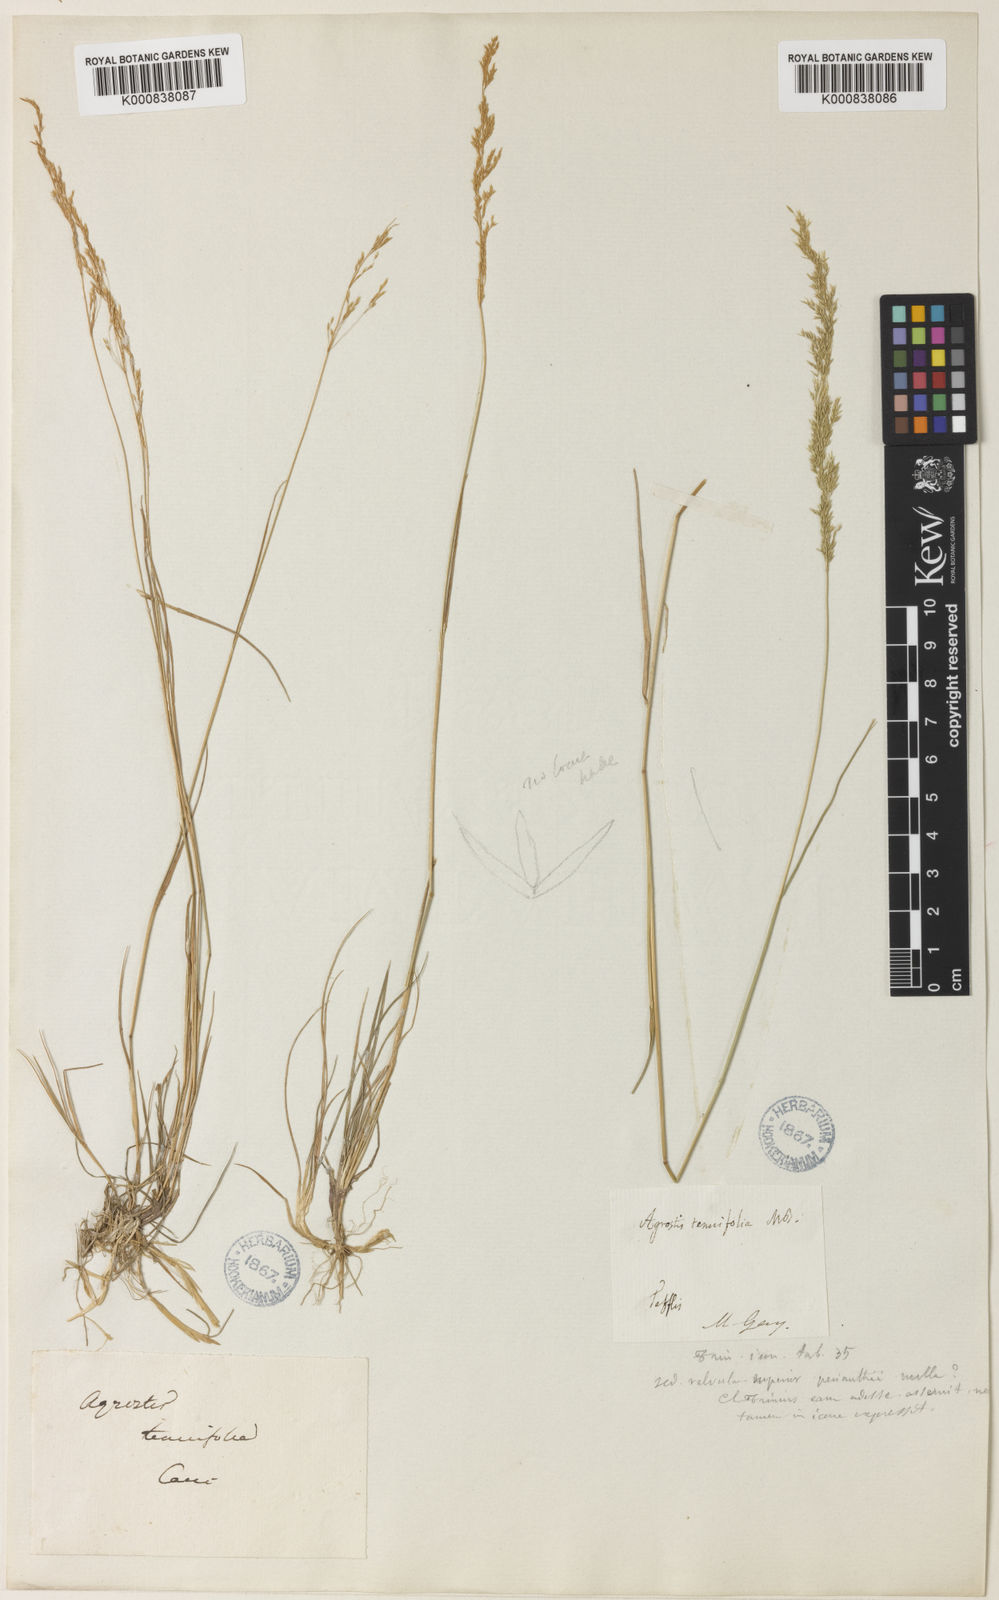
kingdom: Plantae
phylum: Tracheophyta
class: Liliopsida
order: Poales
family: Poaceae
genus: Agrostis
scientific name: Agrostis canina
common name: Velvet bent
